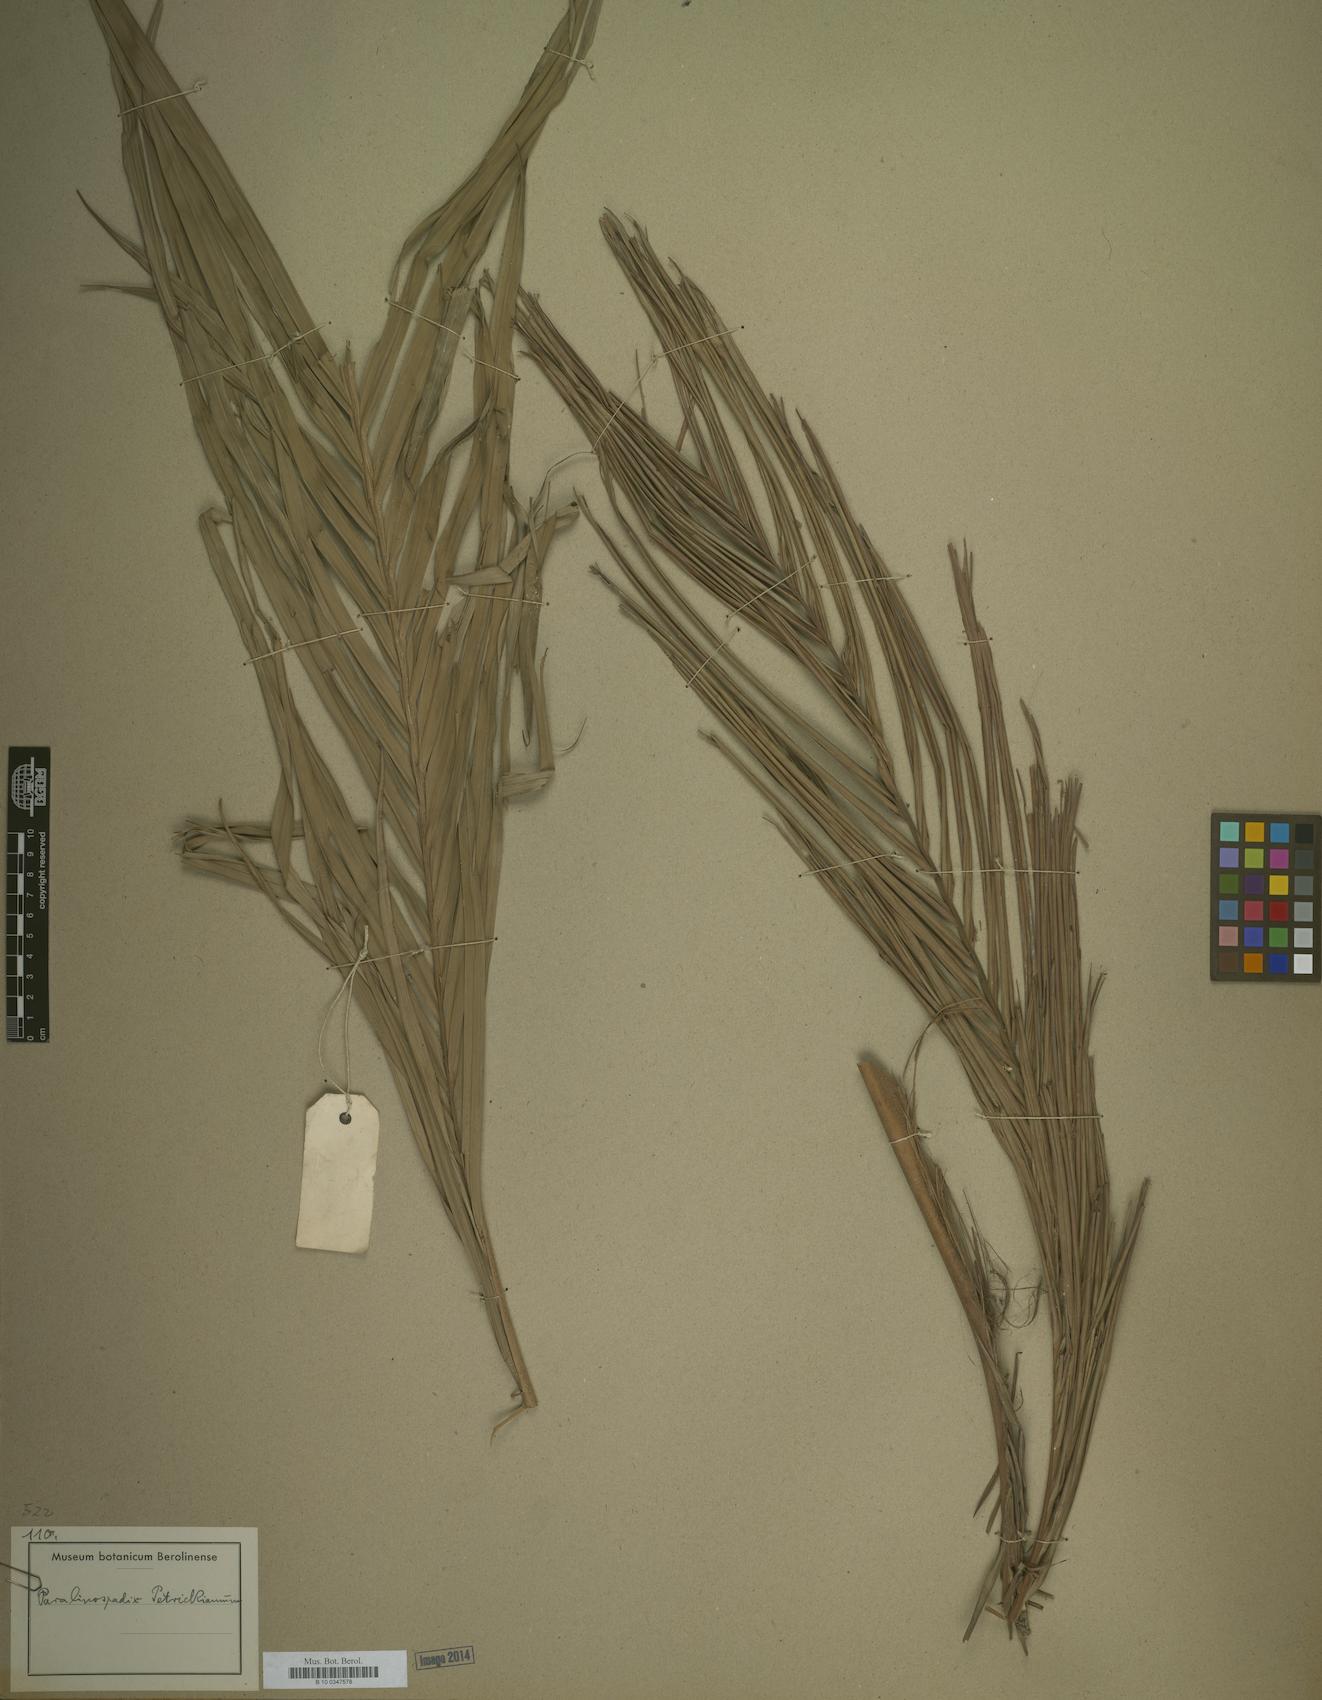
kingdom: Plantae
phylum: Tracheophyta
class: Liliopsida
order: Arecales
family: Arecaceae
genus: Calyptrocalyx
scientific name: Calyptrocalyx
